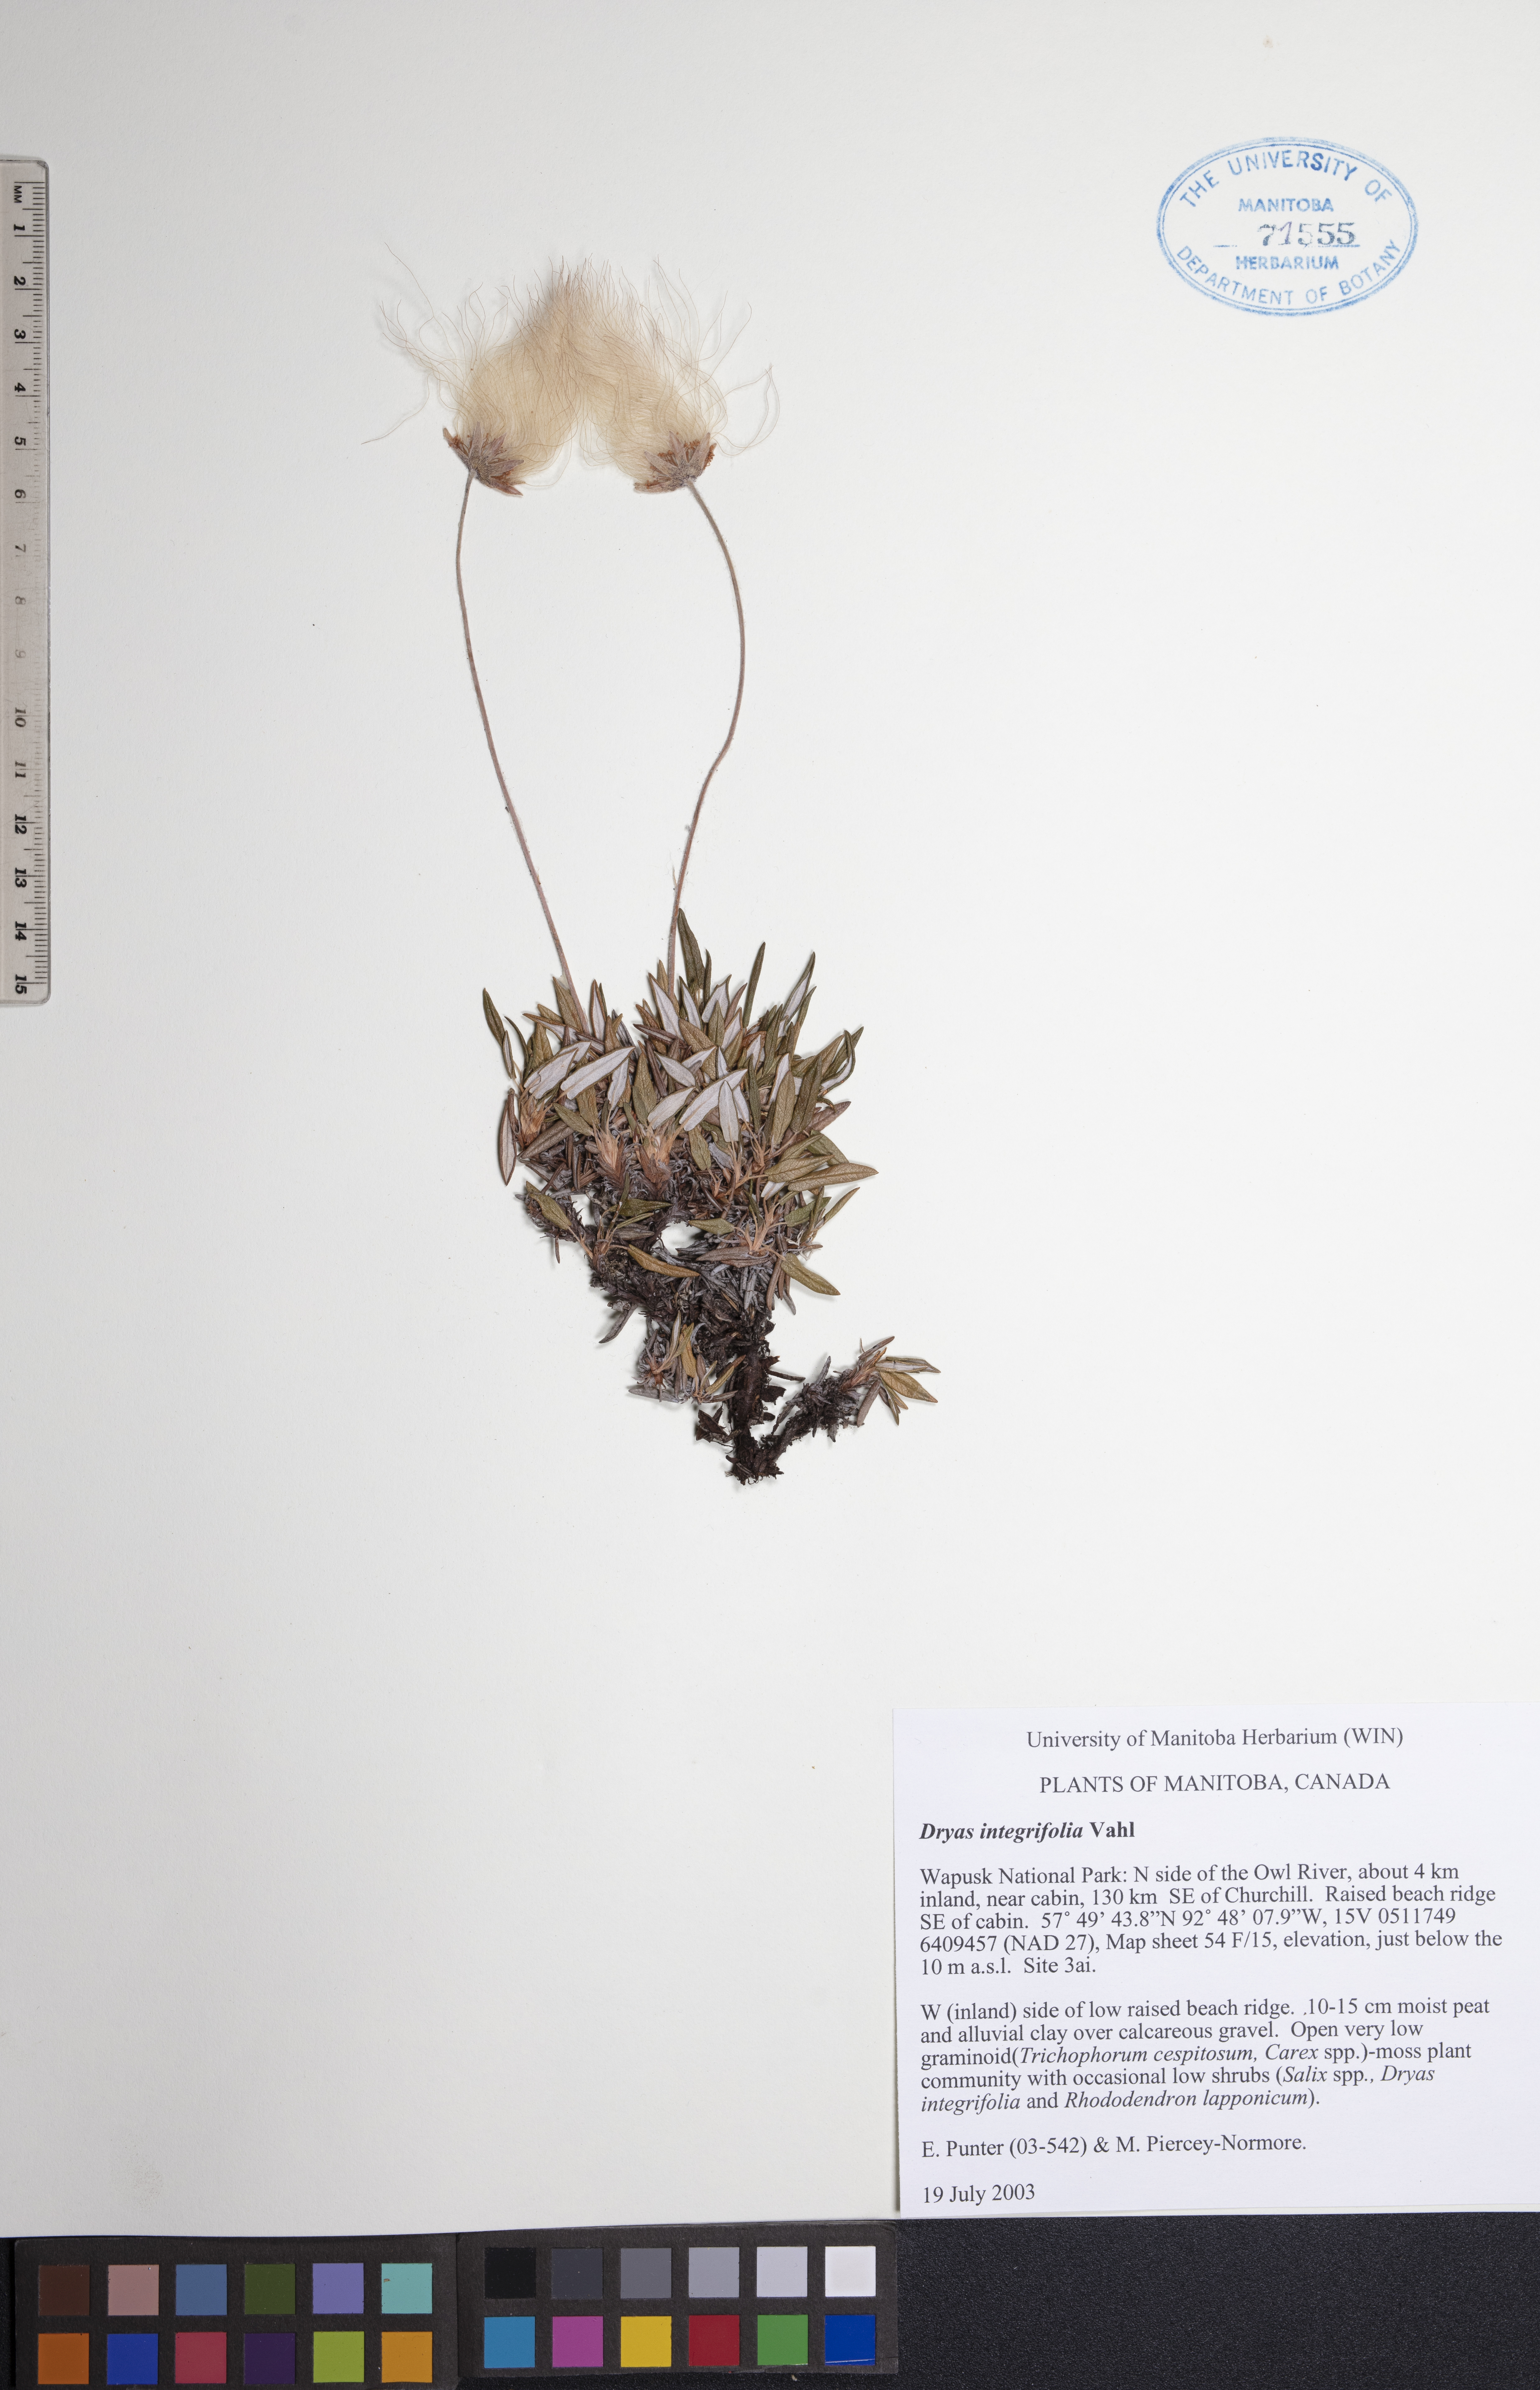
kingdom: Plantae
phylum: Tracheophyta
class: Magnoliopsida
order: Rosales
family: Rosaceae
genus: Dryas
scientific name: Dryas integrifolia
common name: Entire-leaved mountain avens
